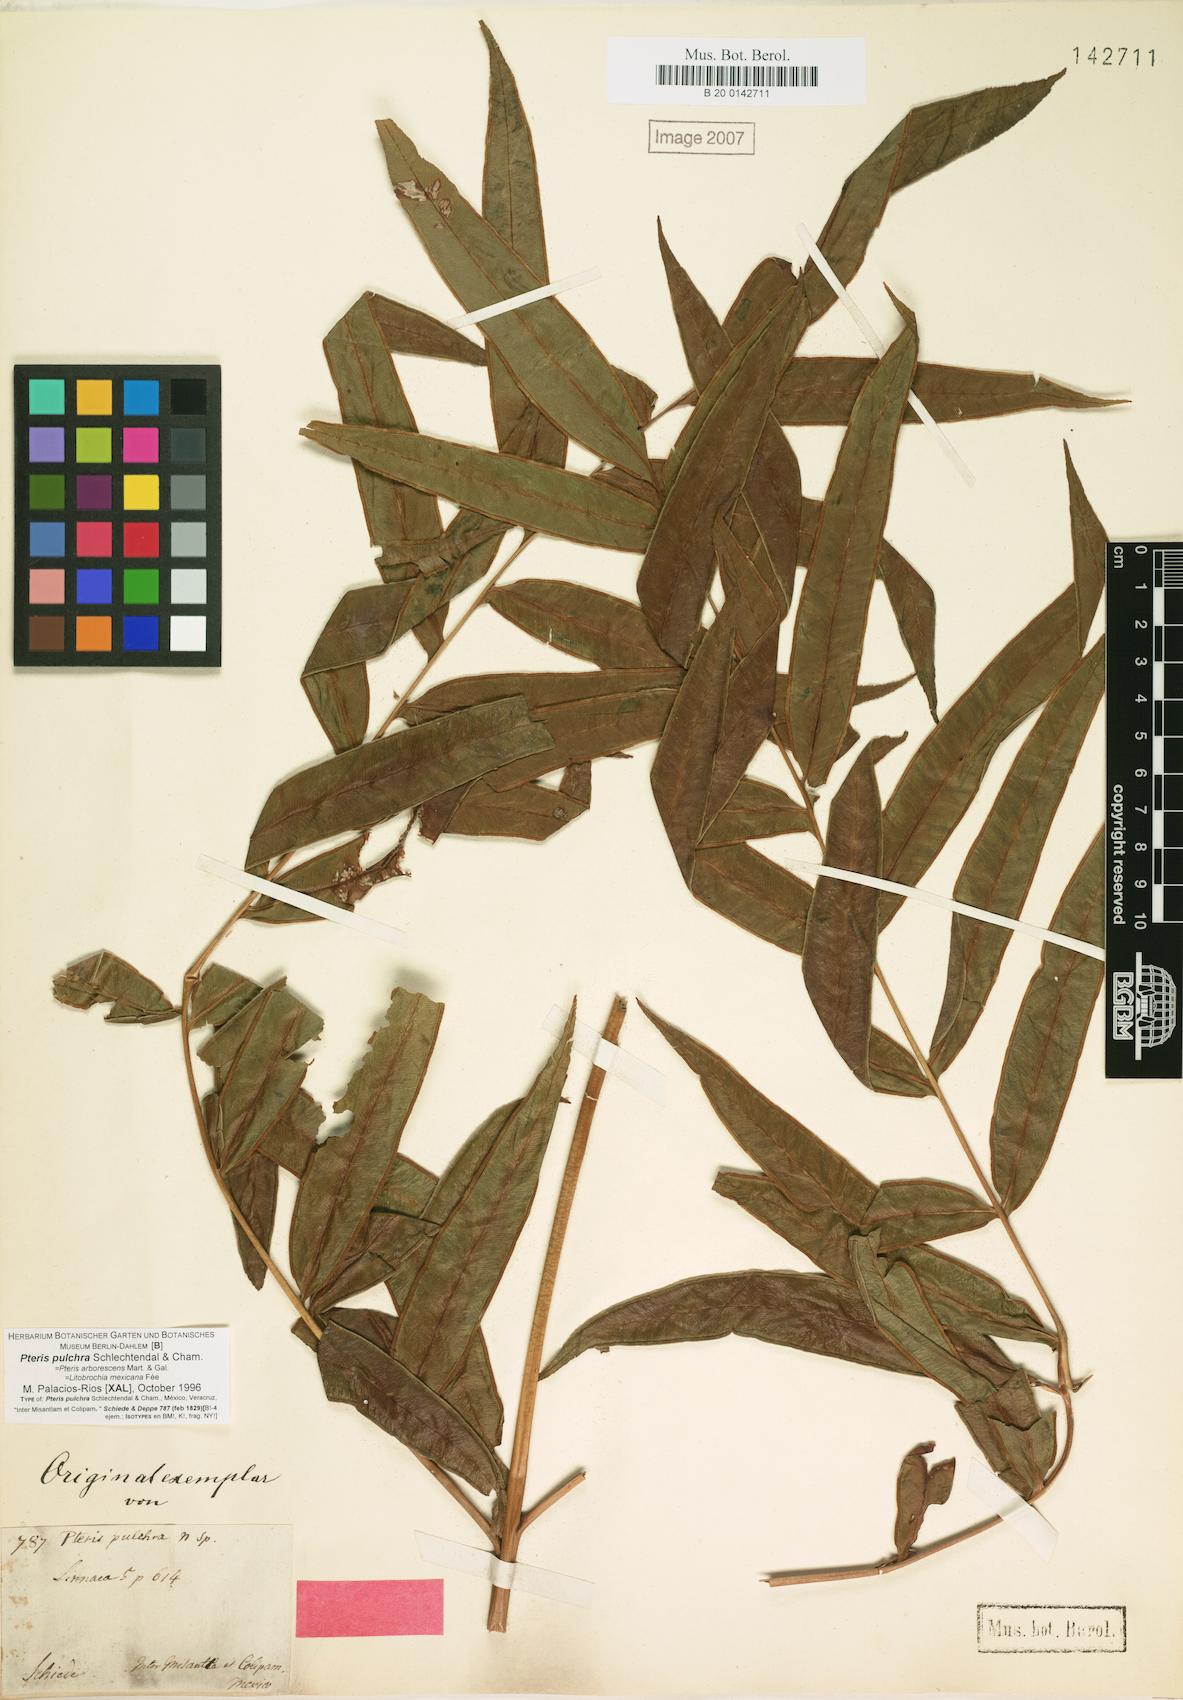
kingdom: Plantae
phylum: Tracheophyta
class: Polypodiopsida
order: Polypodiales
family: Pteridaceae
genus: Pteris
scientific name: Pteris pulchra
